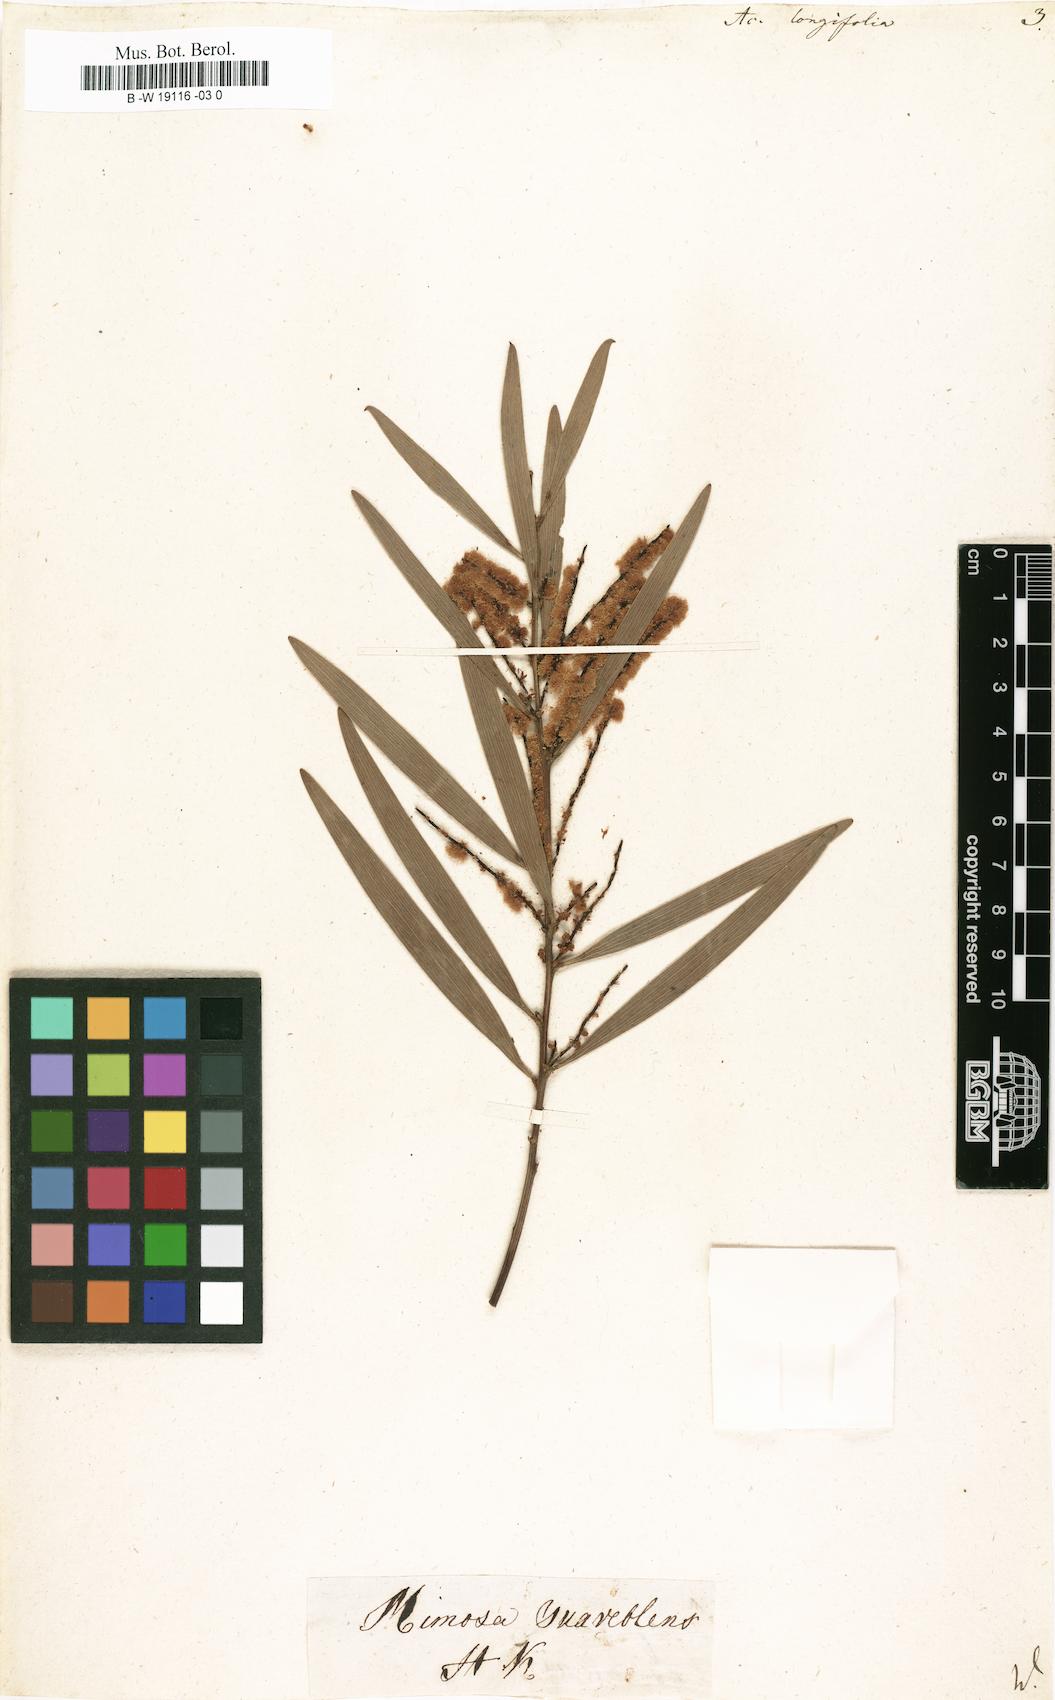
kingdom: Plantae
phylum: Tracheophyta
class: Magnoliopsida
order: Fabales
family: Fabaceae
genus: Acacia
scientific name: Acacia longifolia
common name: Sydney golden wattle
